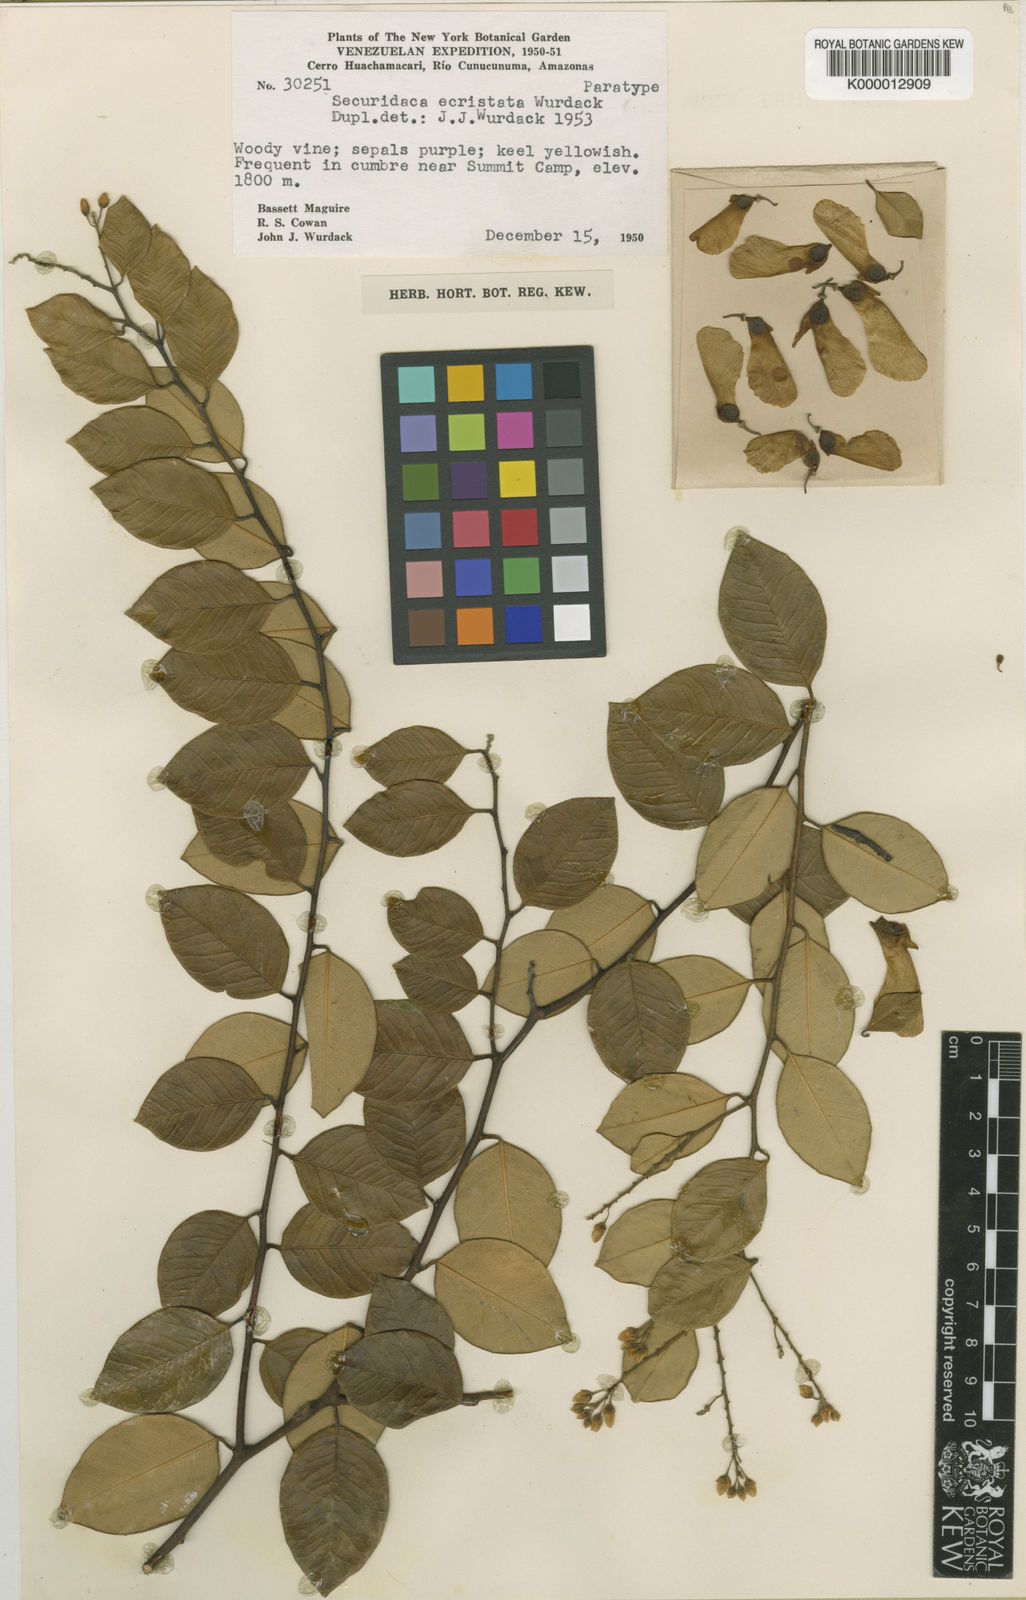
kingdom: Plantae
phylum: Tracheophyta
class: Magnoliopsida
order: Fabales
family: Polygalaceae
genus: Securidaca
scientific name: Securidaca cacumina
